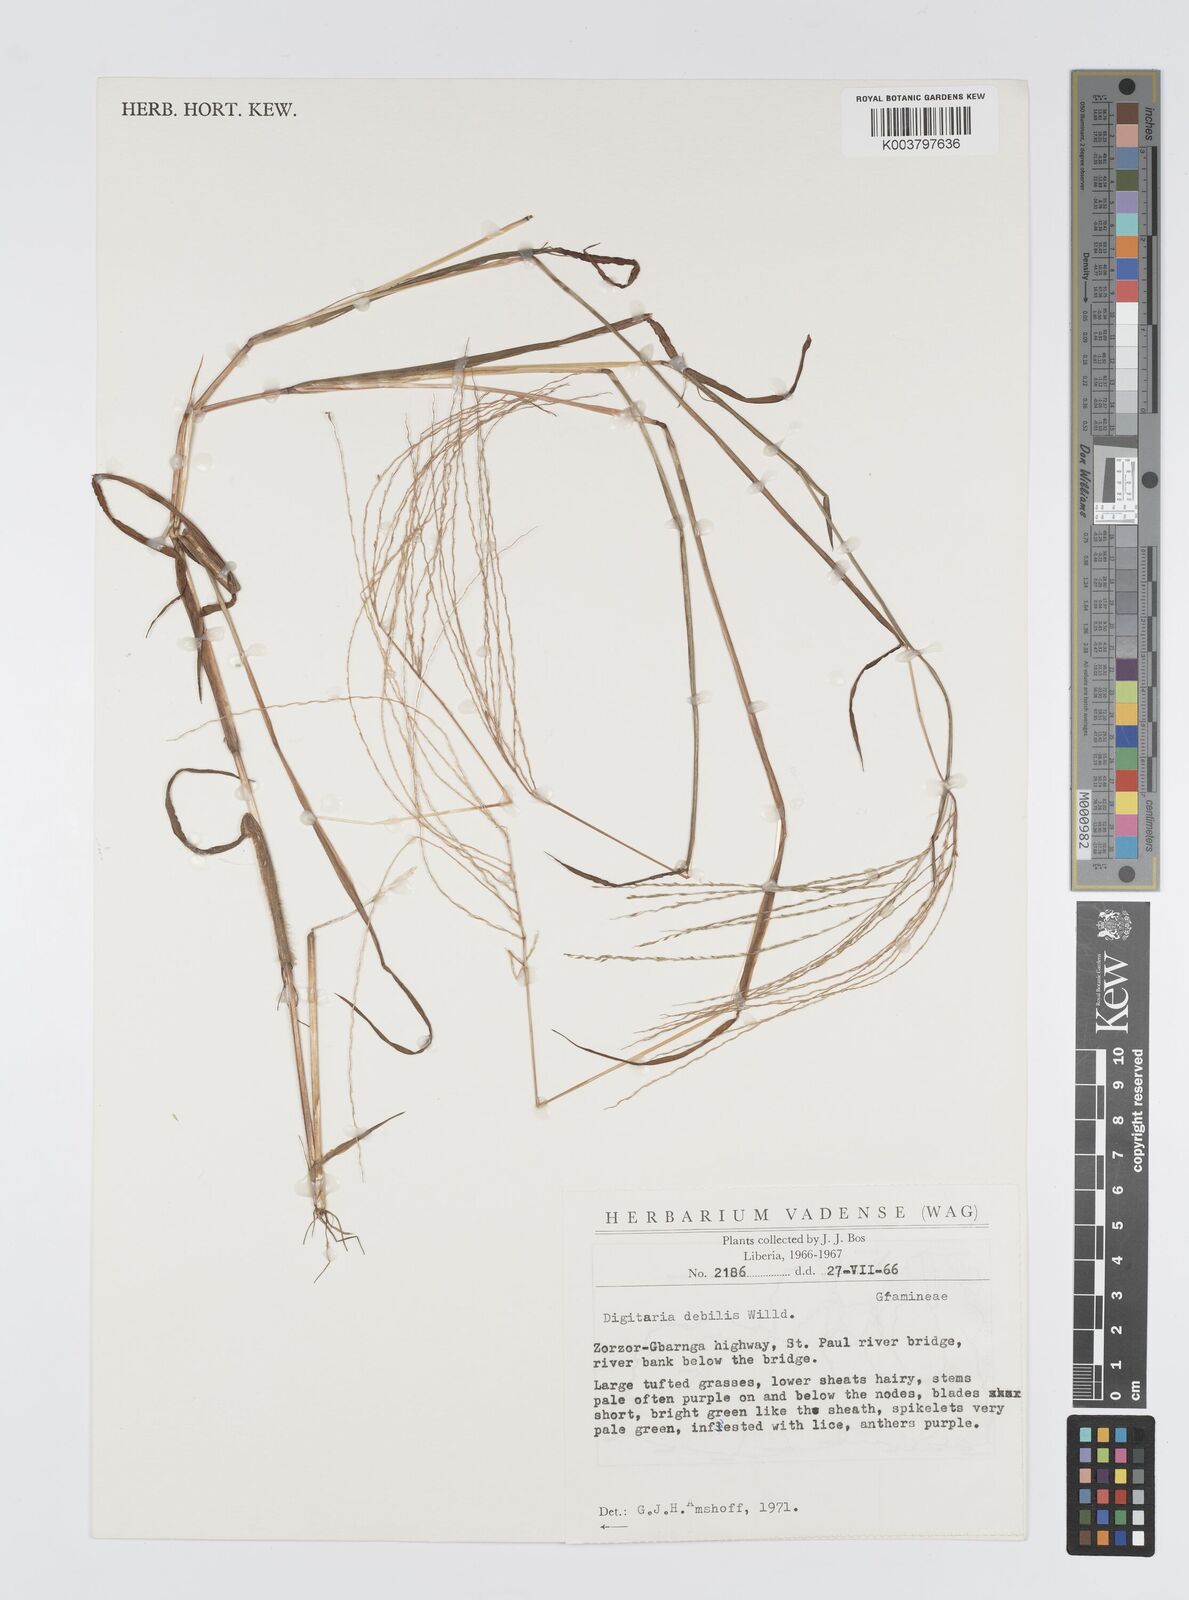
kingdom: Plantae
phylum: Tracheophyta
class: Liliopsida
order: Poales
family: Poaceae
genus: Digitaria
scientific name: Digitaria debilis
